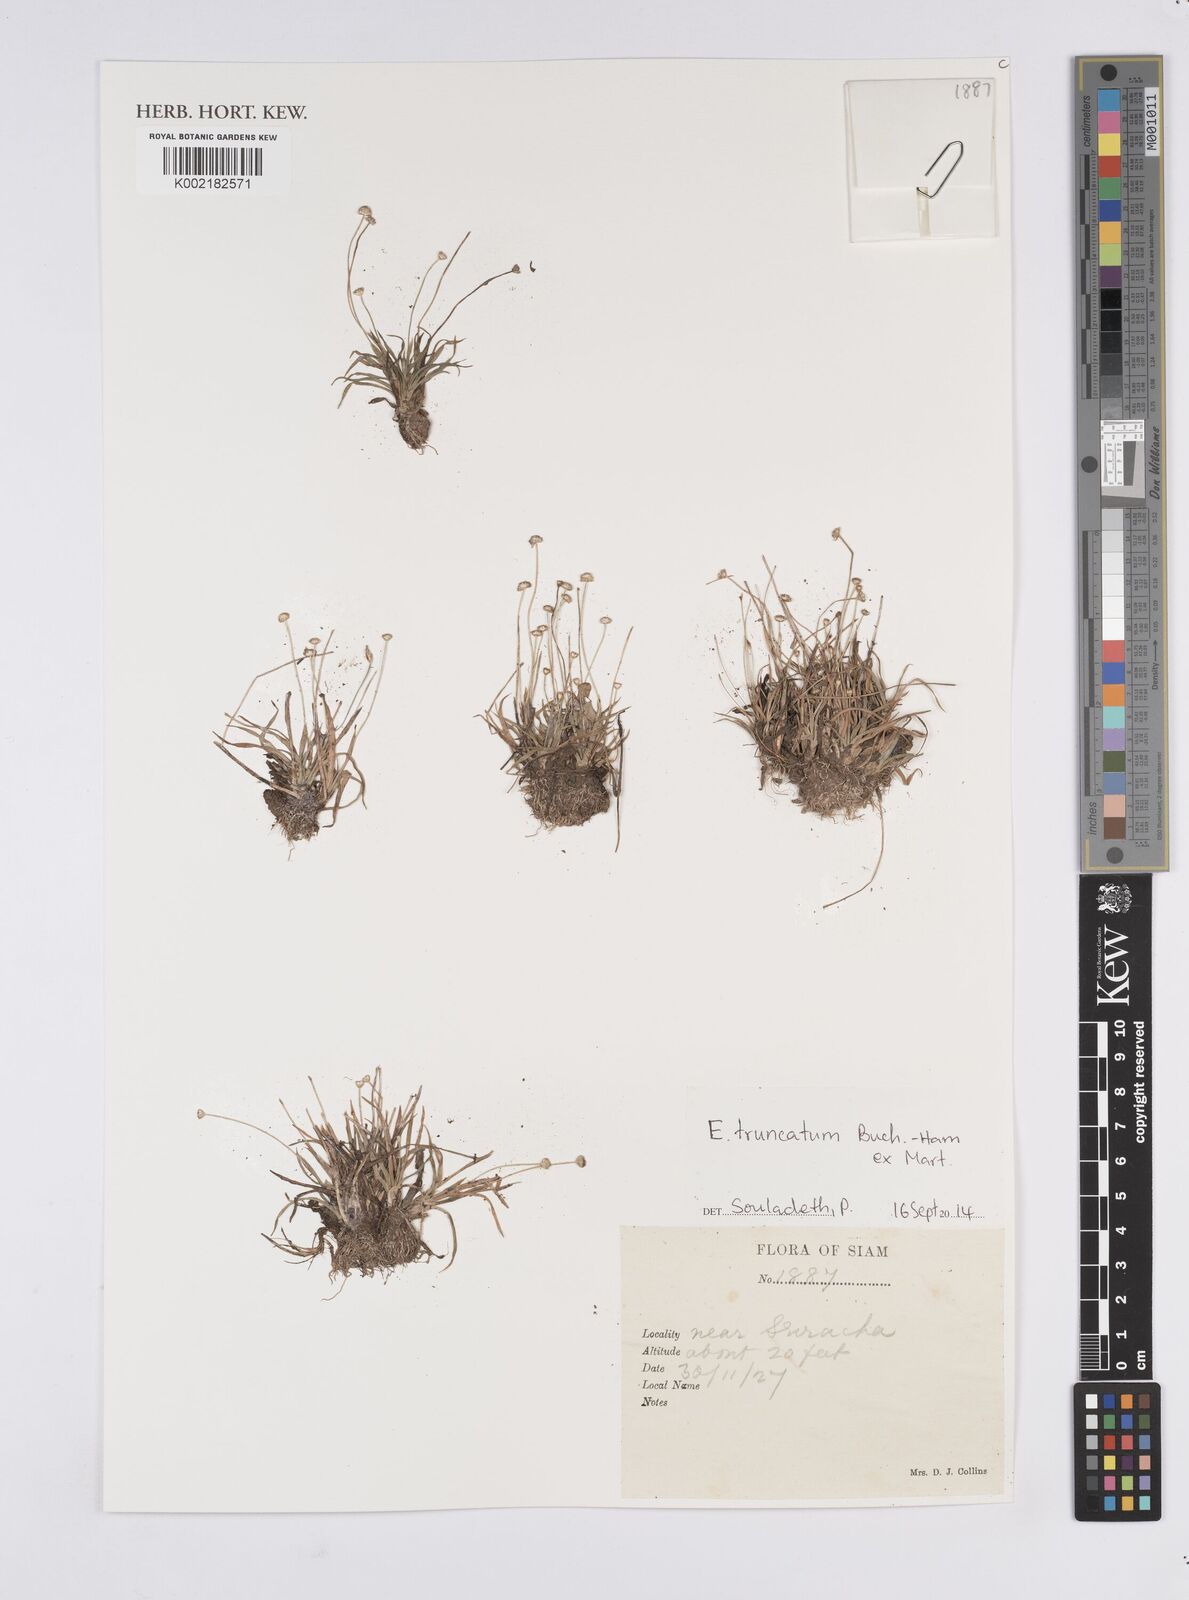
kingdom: Plantae
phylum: Tracheophyta
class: Liliopsida
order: Poales
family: Eriocaulaceae
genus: Eriocaulon
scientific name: Eriocaulon truncatum
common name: Short pipe-wort
